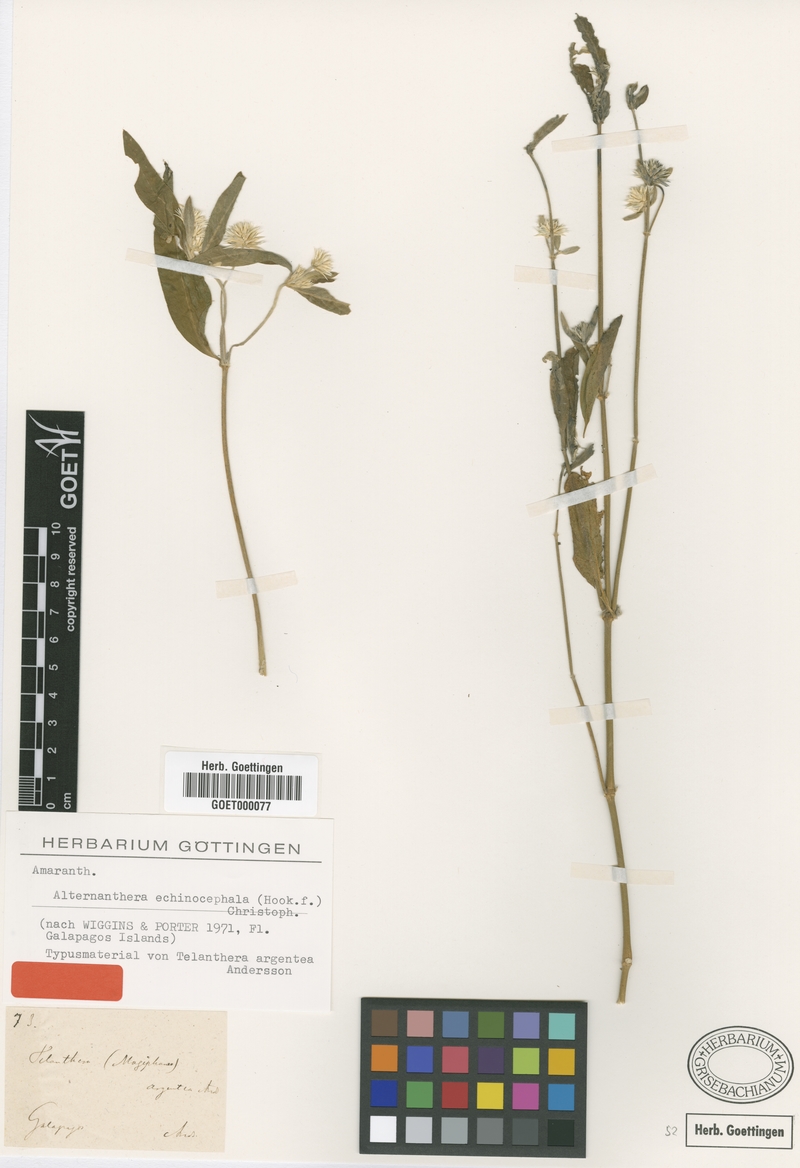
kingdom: Plantae
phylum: Tracheophyta
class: Magnoliopsida
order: Caryophyllales
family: Amaranthaceae
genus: Alternanthera
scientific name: Alternanthera echinocephala
